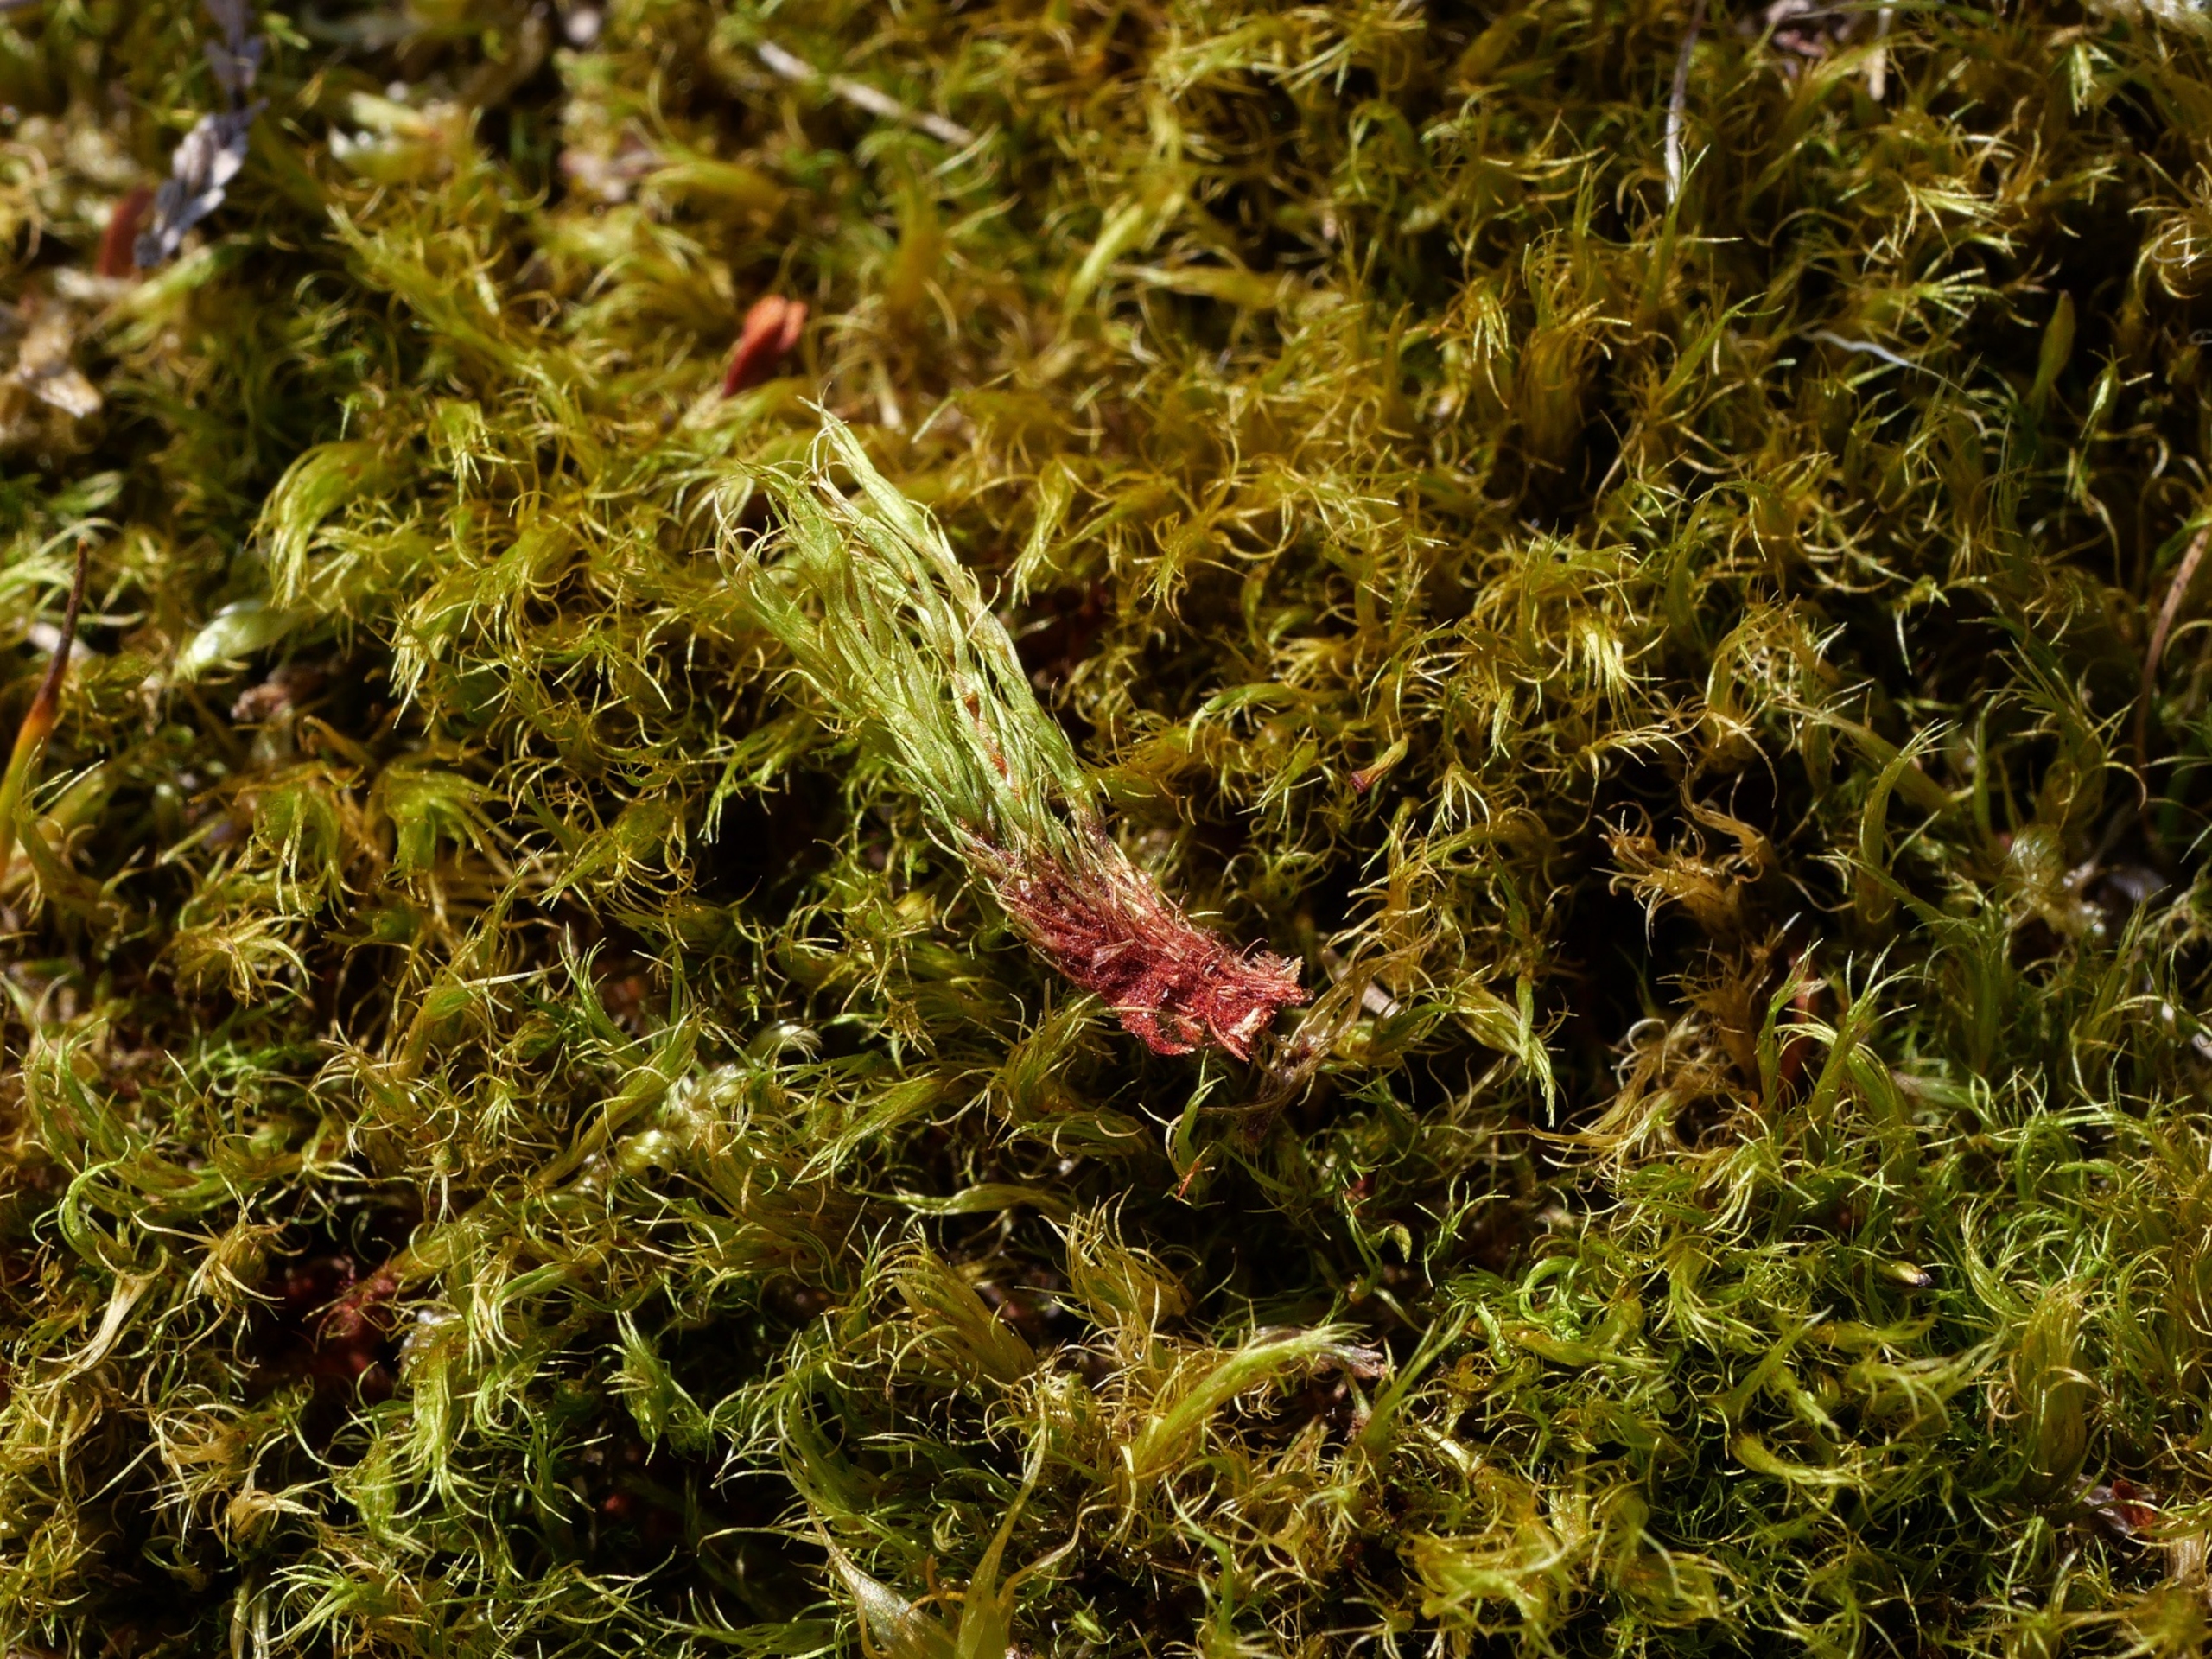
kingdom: Plantae
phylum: Bryophyta
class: Bryopsida
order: Dicranales
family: Leucobryaceae
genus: Campylopus
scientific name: Campylopus flexuosus
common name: Filtet bredribbe
